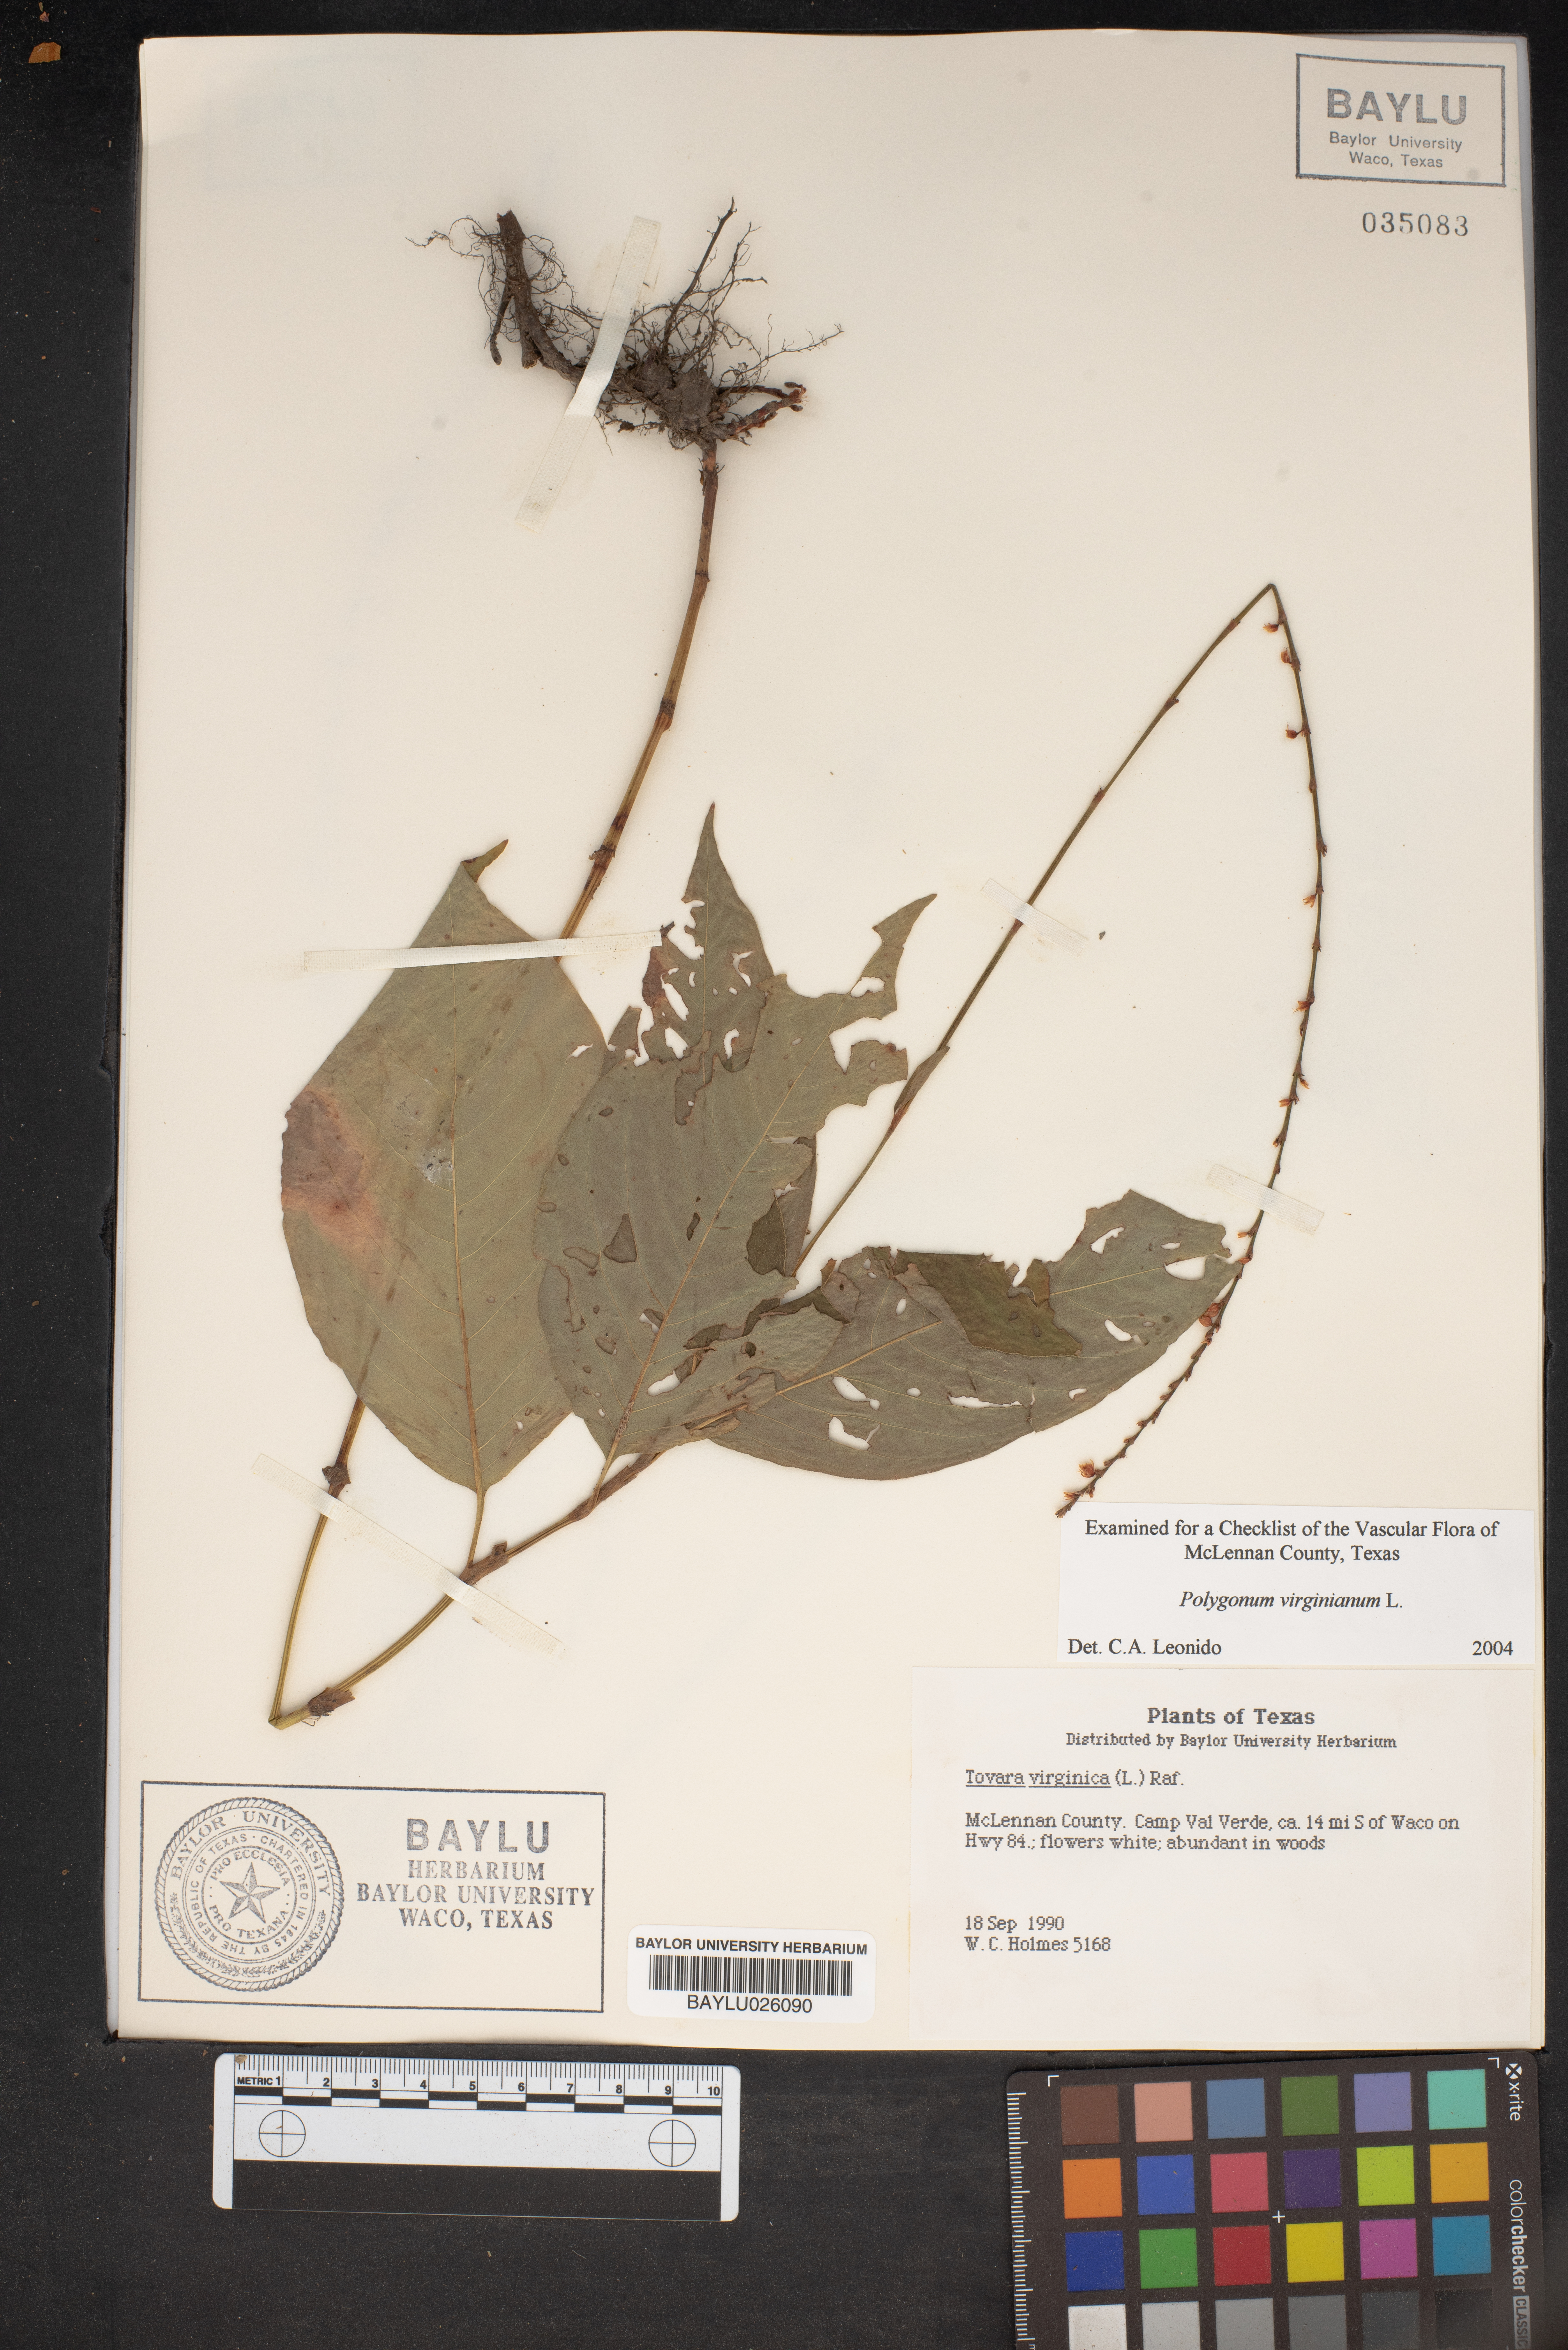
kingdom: Plantae
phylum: Tracheophyta
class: Magnoliopsida
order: Caryophyllales
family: Polygonaceae
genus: Persicaria
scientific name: Persicaria virginiana
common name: Jumpseed
